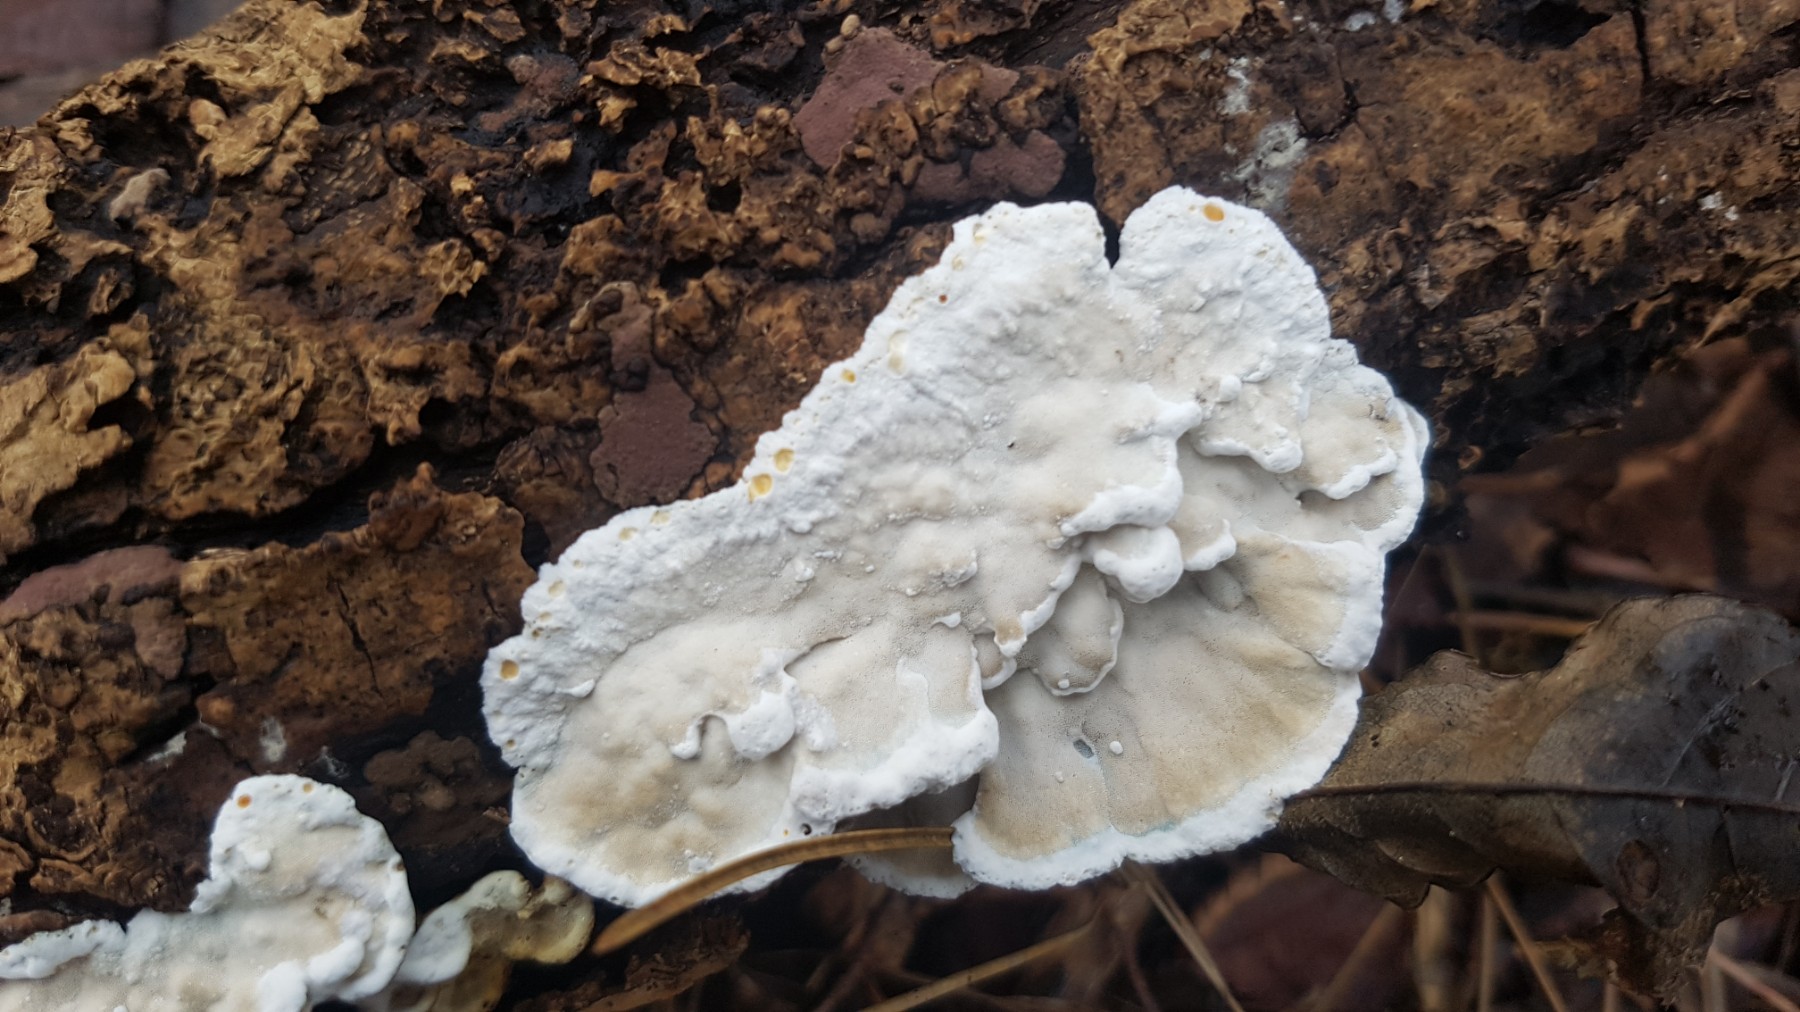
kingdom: Fungi
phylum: Basidiomycota
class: Agaricomycetes
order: Polyporales
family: Incrustoporiaceae
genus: Skeletocutis
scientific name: Skeletocutis nemoralis
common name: stor krystalporesvamp
